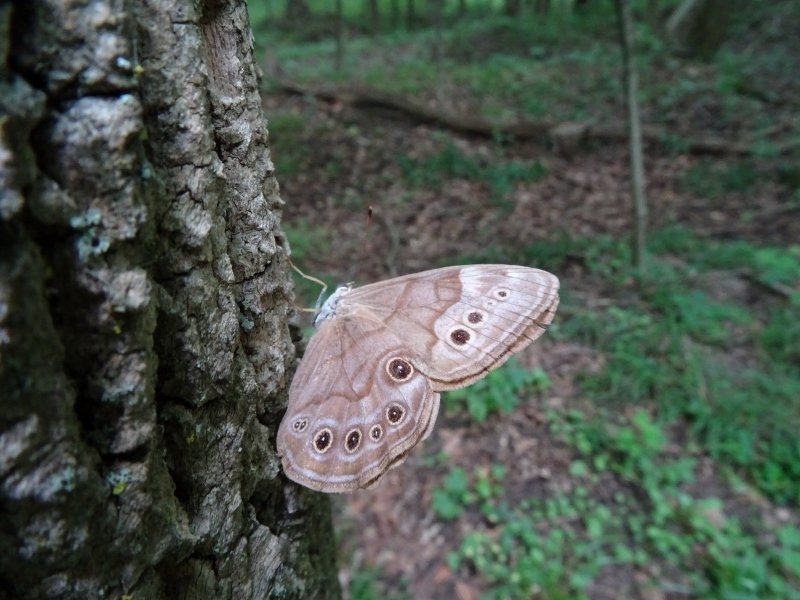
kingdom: Animalia
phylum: Arthropoda
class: Insecta
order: Lepidoptera
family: Nymphalidae
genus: Lethe
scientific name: Lethe anthedon
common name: Northern Pearly-Eye
